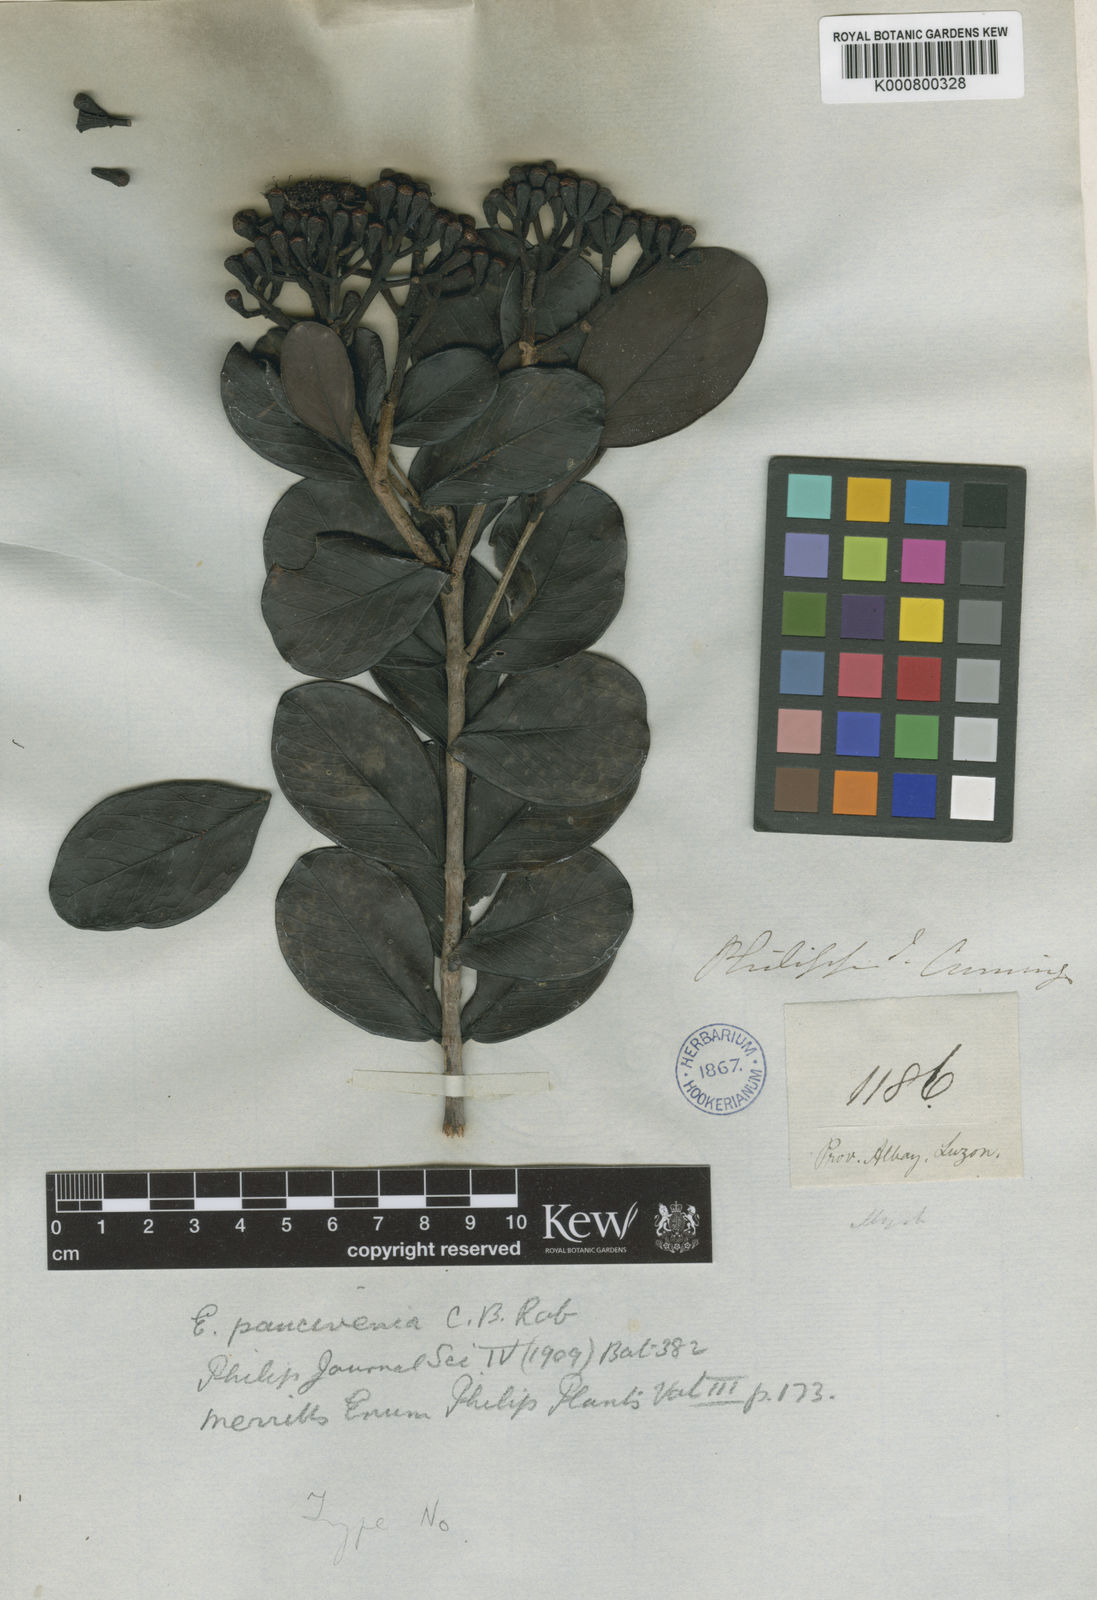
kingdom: Plantae
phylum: Tracheophyta
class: Magnoliopsida
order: Myrtales
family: Myrtaceae
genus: Syzygium
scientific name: Syzygium paucivenium
